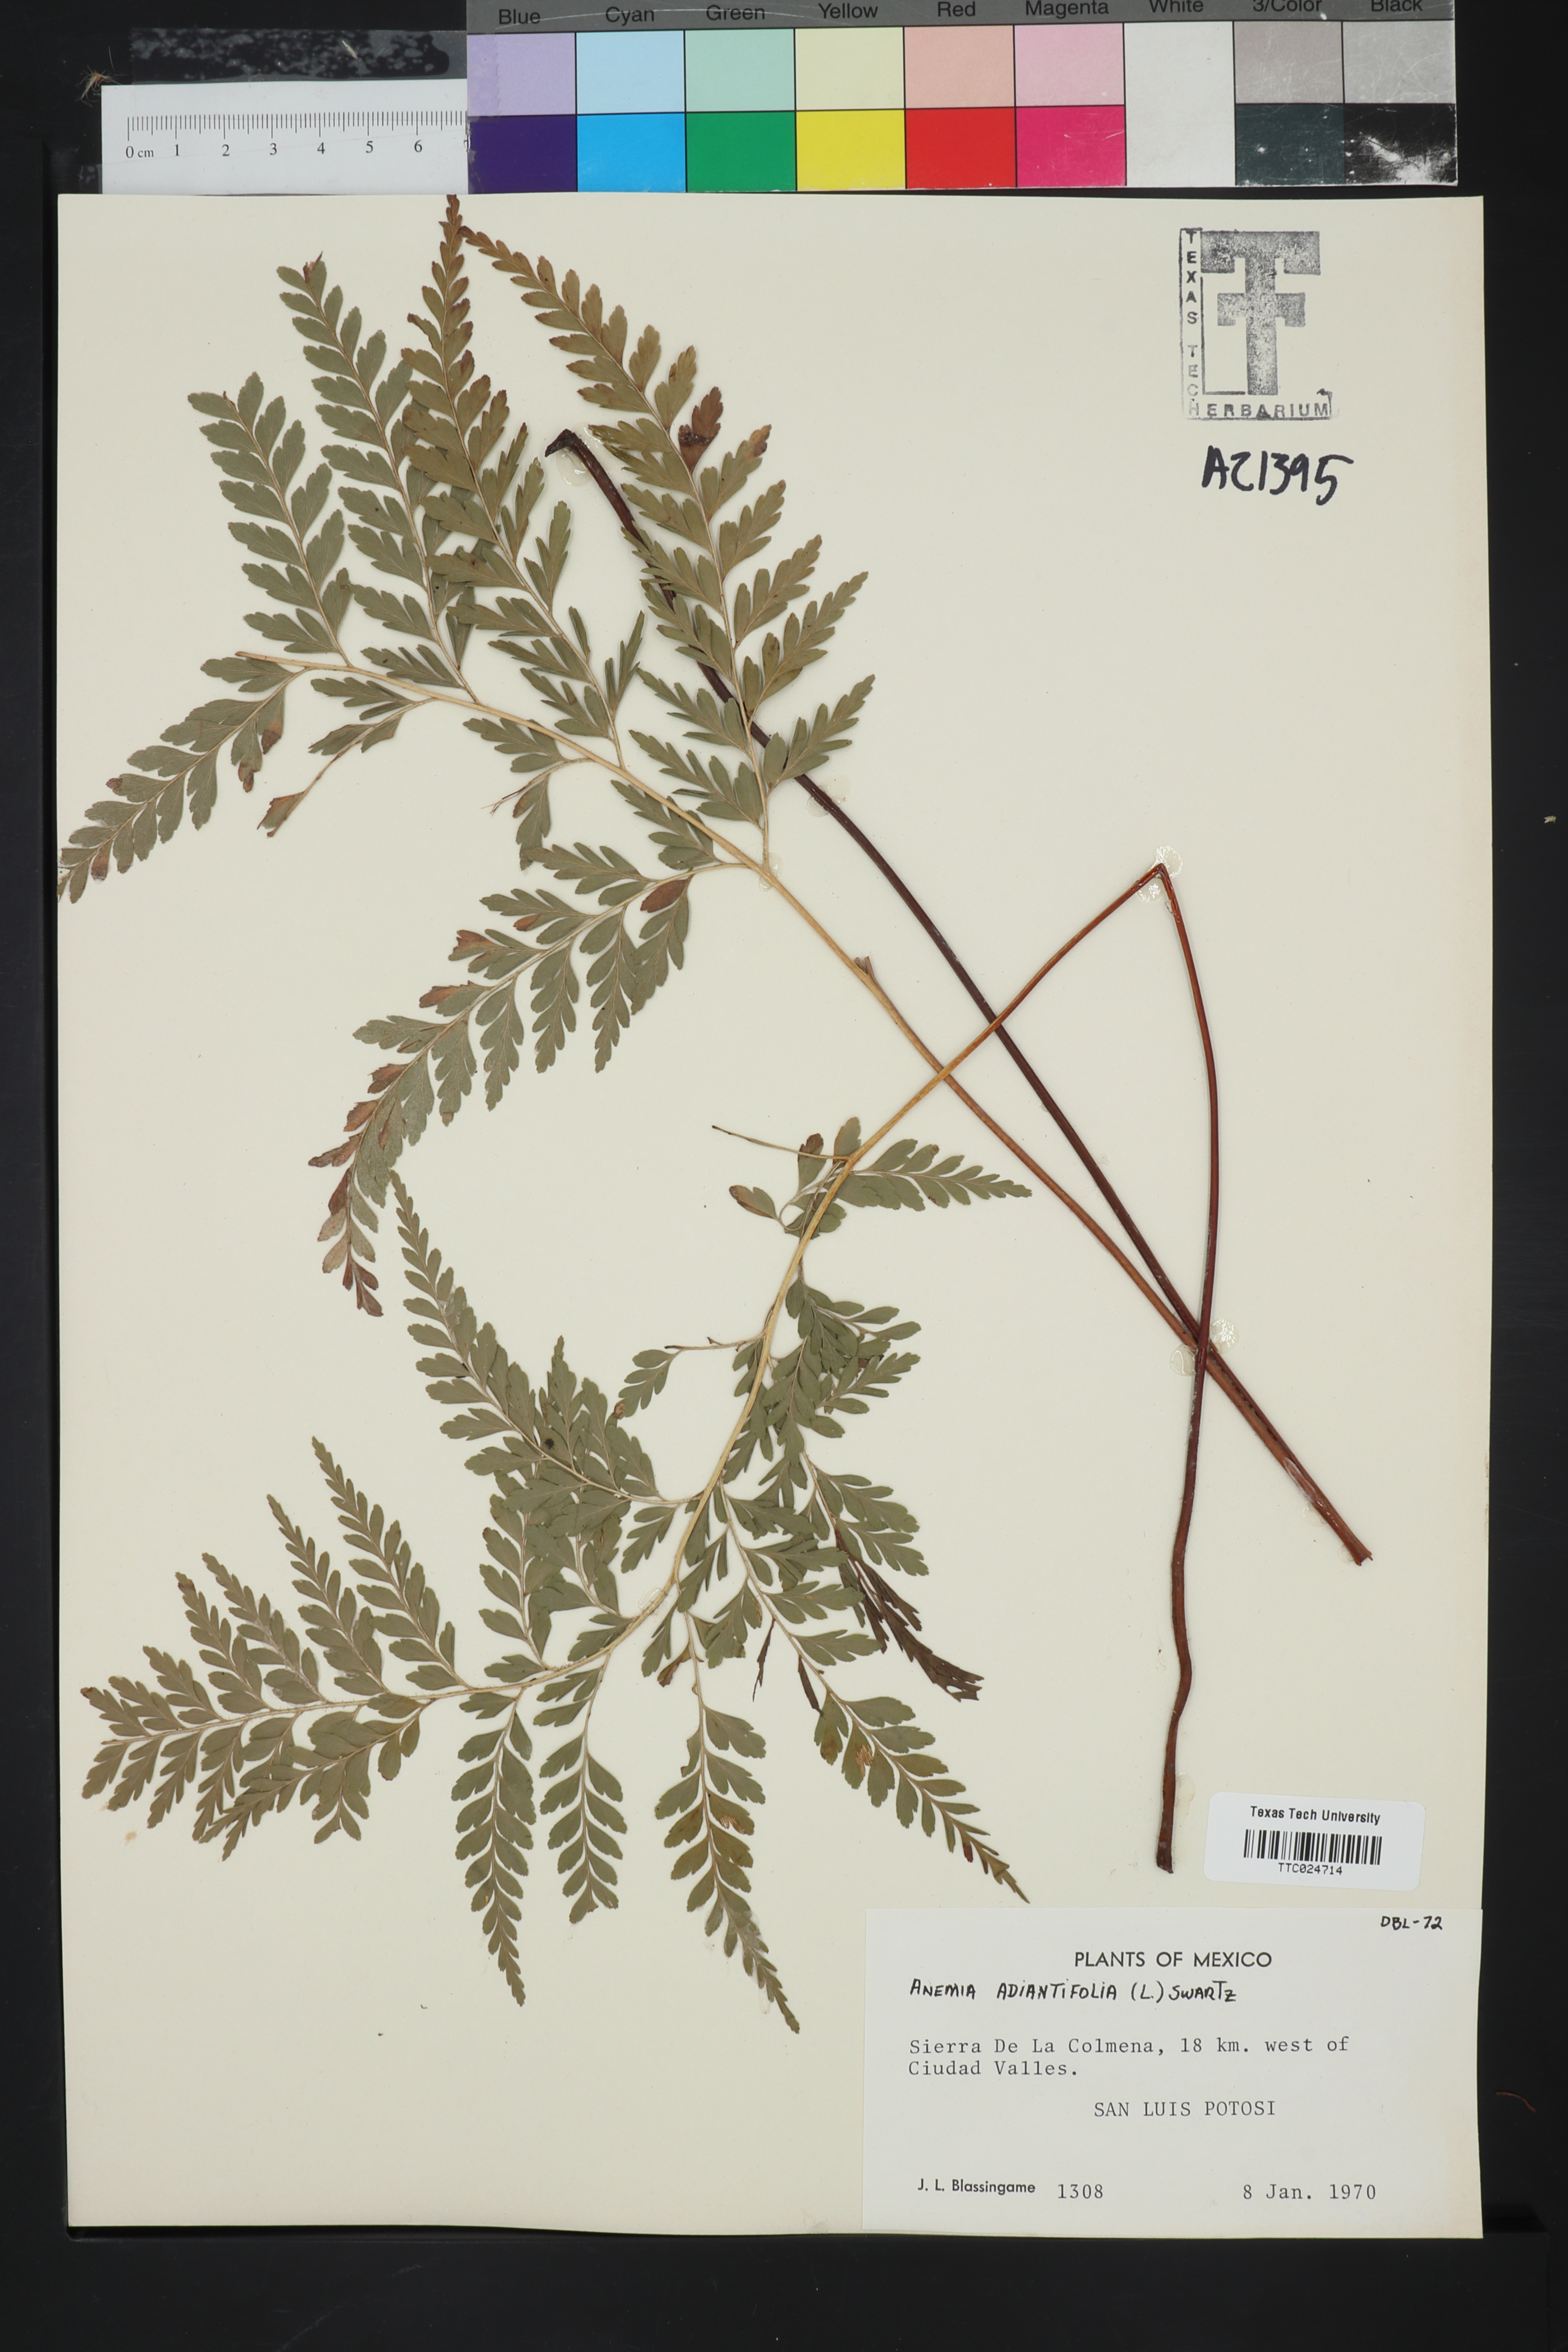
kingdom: Plantae
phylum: Tracheophyta
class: Polypodiopsida
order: Schizaeales
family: Anemiaceae
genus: Anemia
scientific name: Anemia adiantifolia
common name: Pine fern
